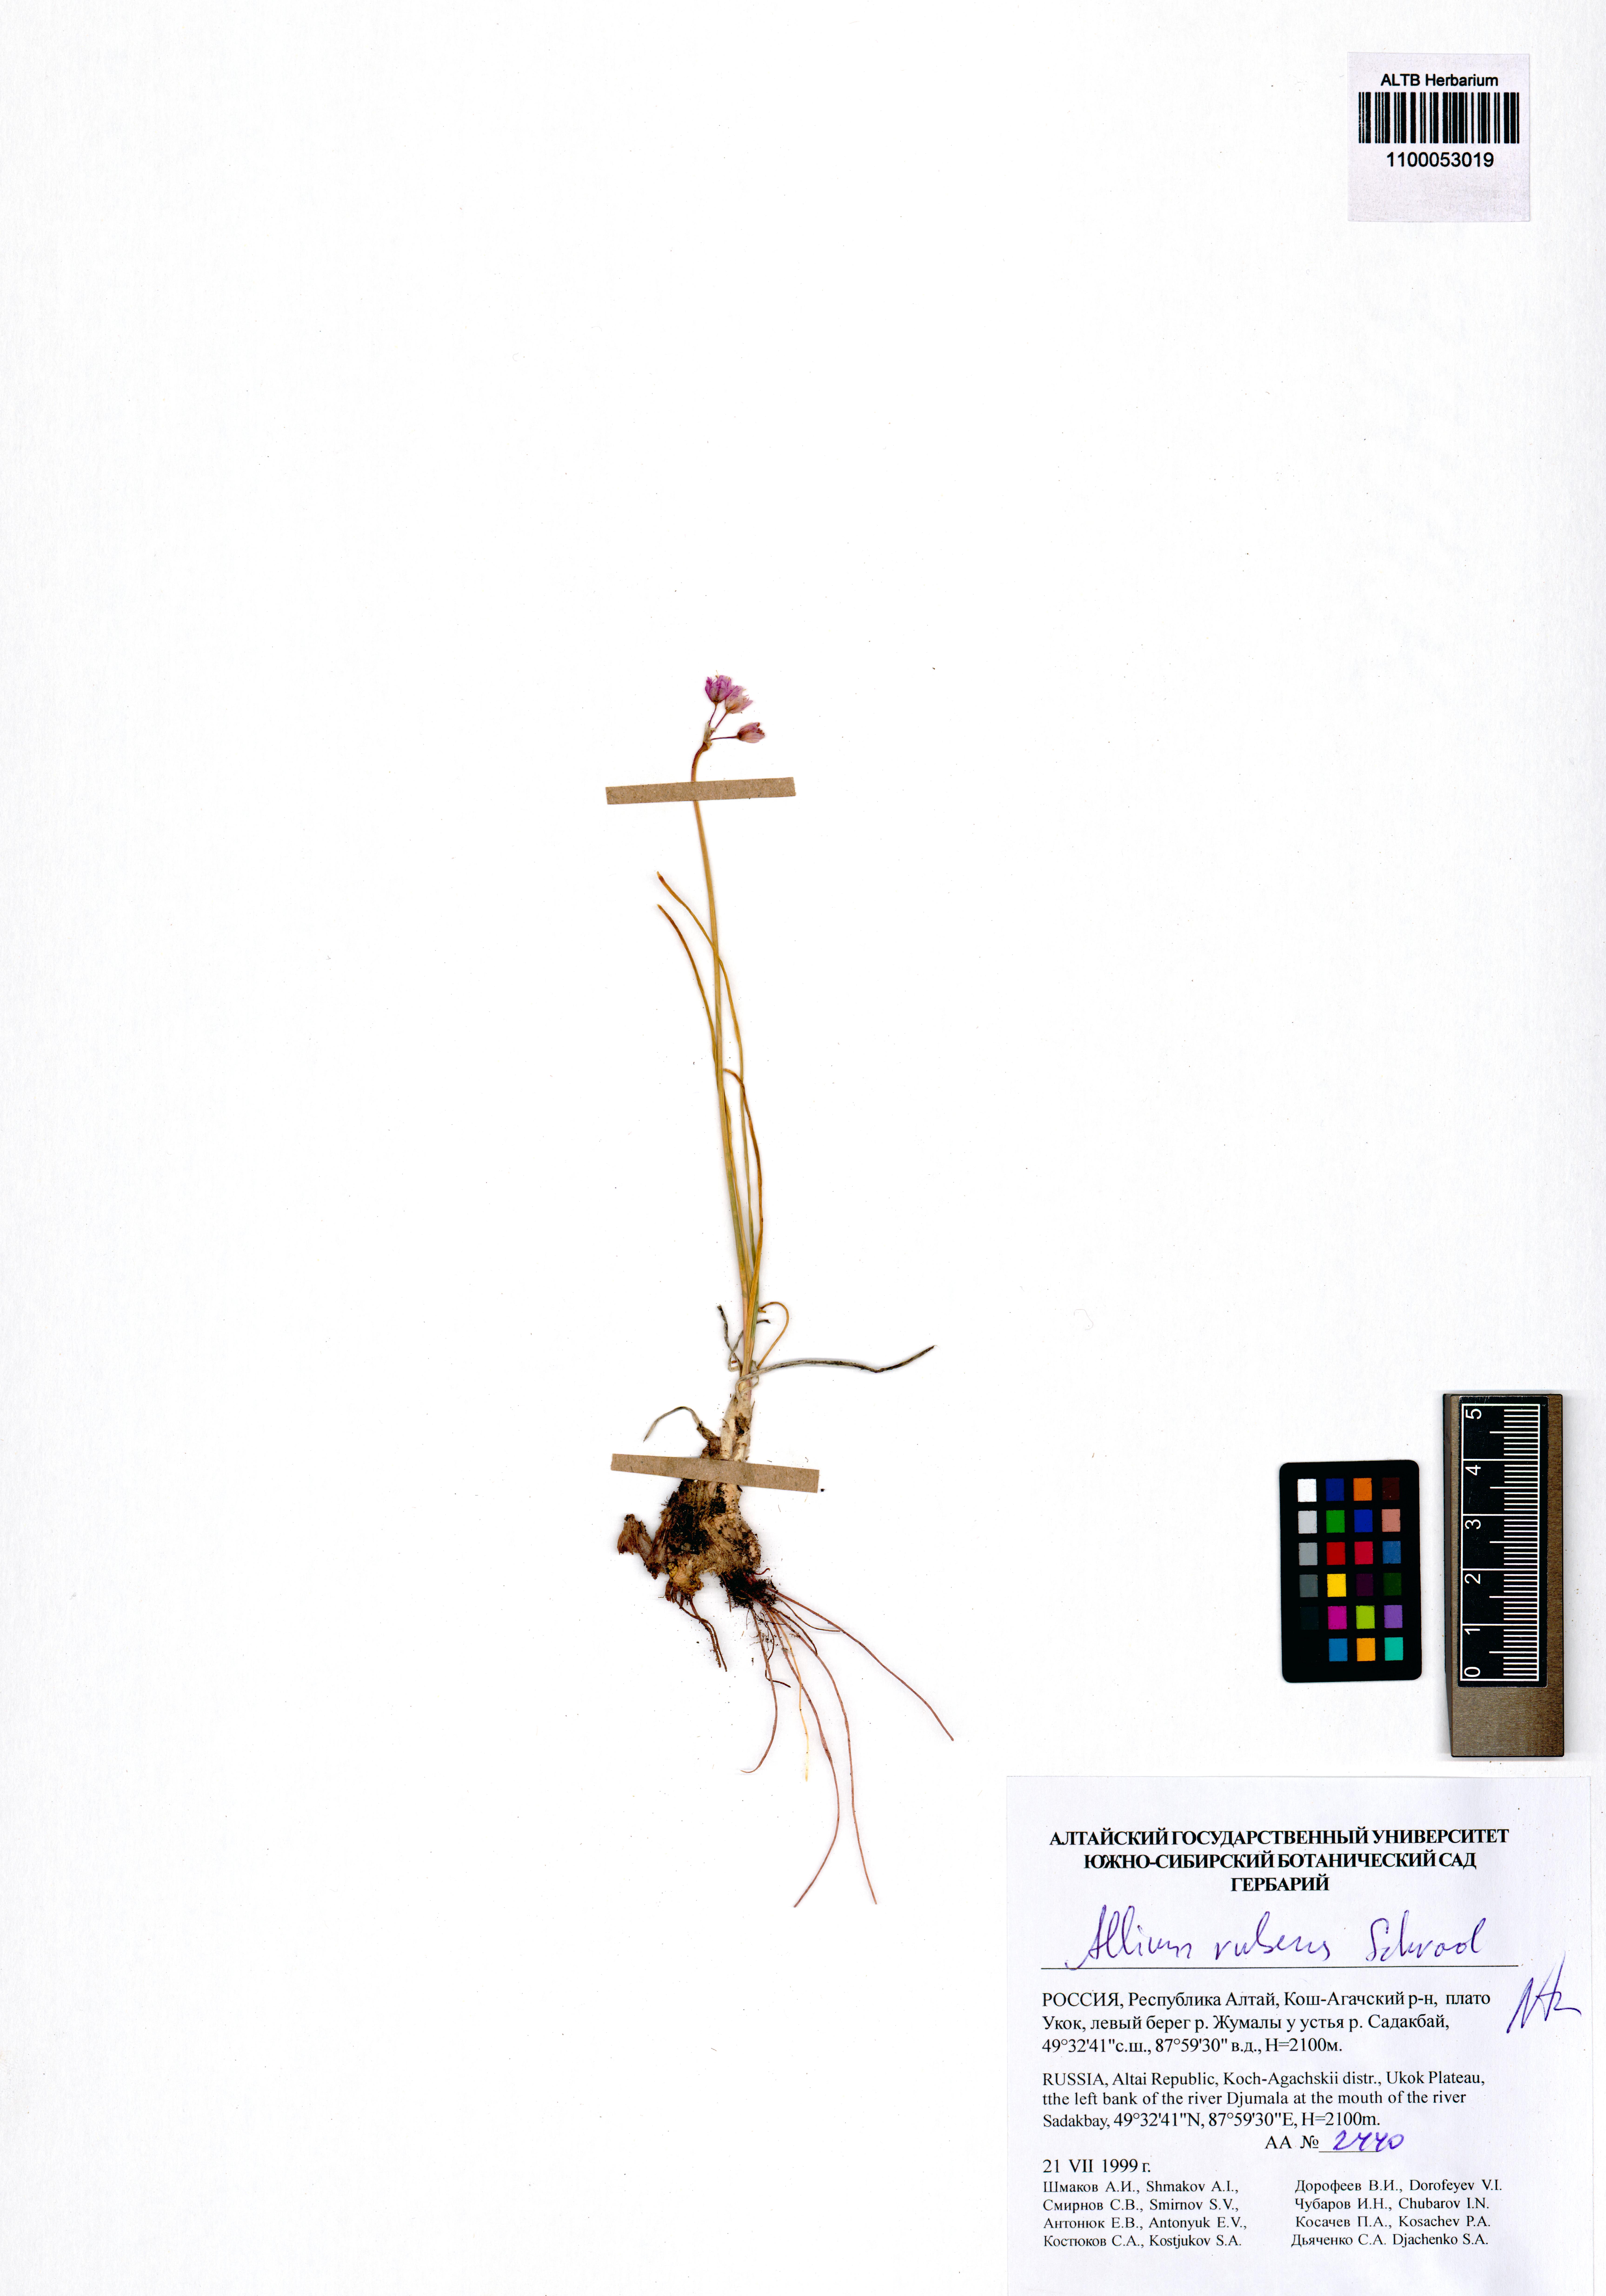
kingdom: Plantae
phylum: Tracheophyta
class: Liliopsida
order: Asparagales
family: Amaryllidaceae
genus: Allium
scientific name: Allium rubens
